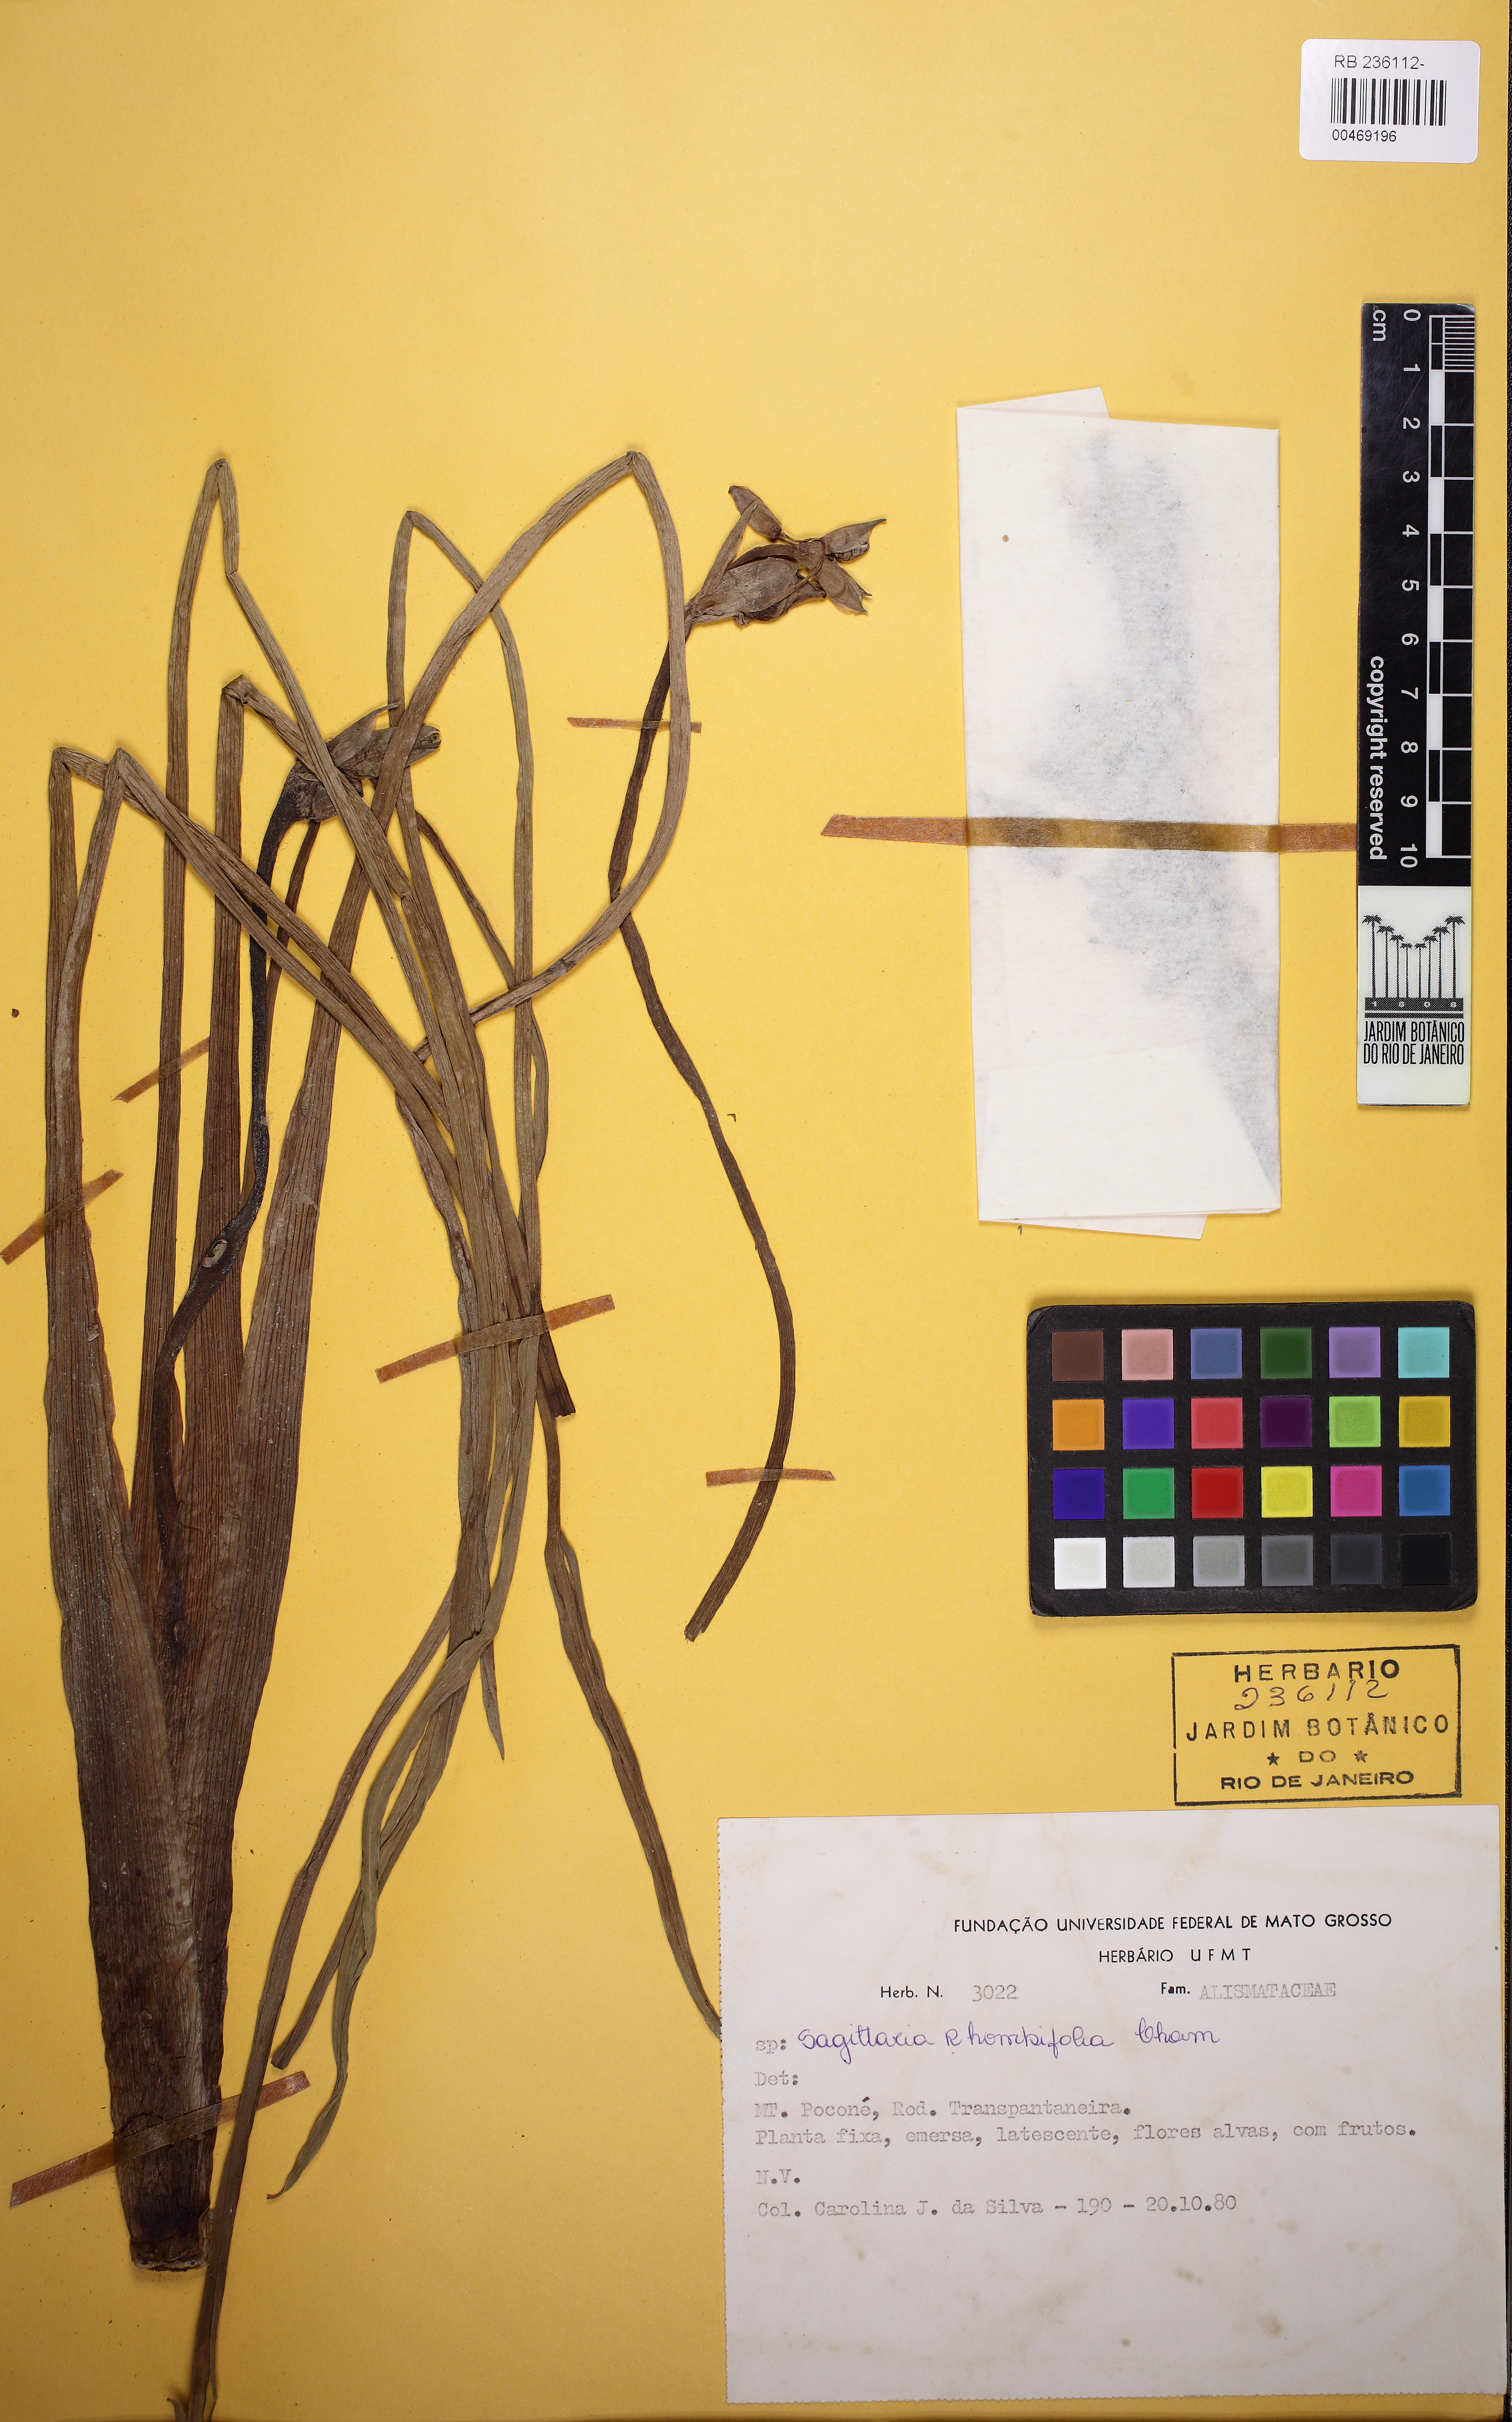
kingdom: Plantae
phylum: Tracheophyta
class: Liliopsida
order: Alismatales
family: Alismataceae
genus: Sagittaria
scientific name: Sagittaria rhombifolia
